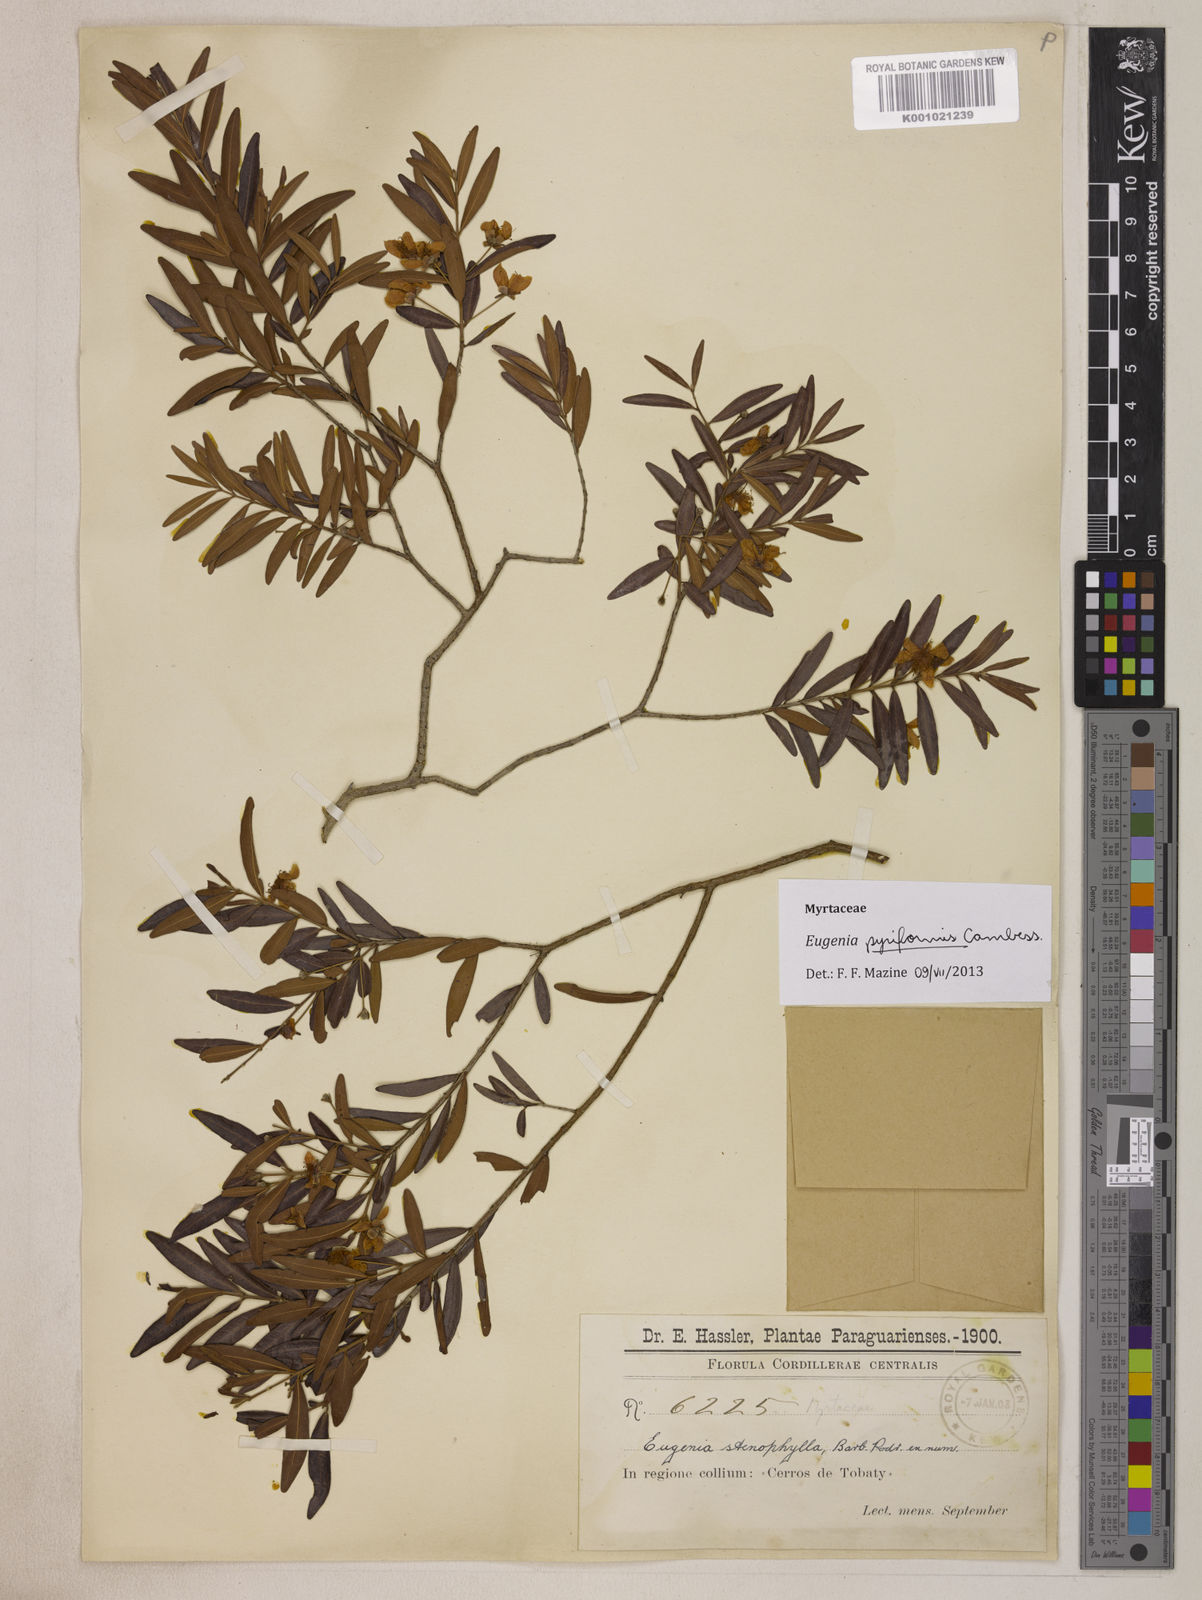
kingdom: Plantae
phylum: Tracheophyta
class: Magnoliopsida
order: Myrtales
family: Myrtaceae
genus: Eugenia
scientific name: Eugenia pyriformis
